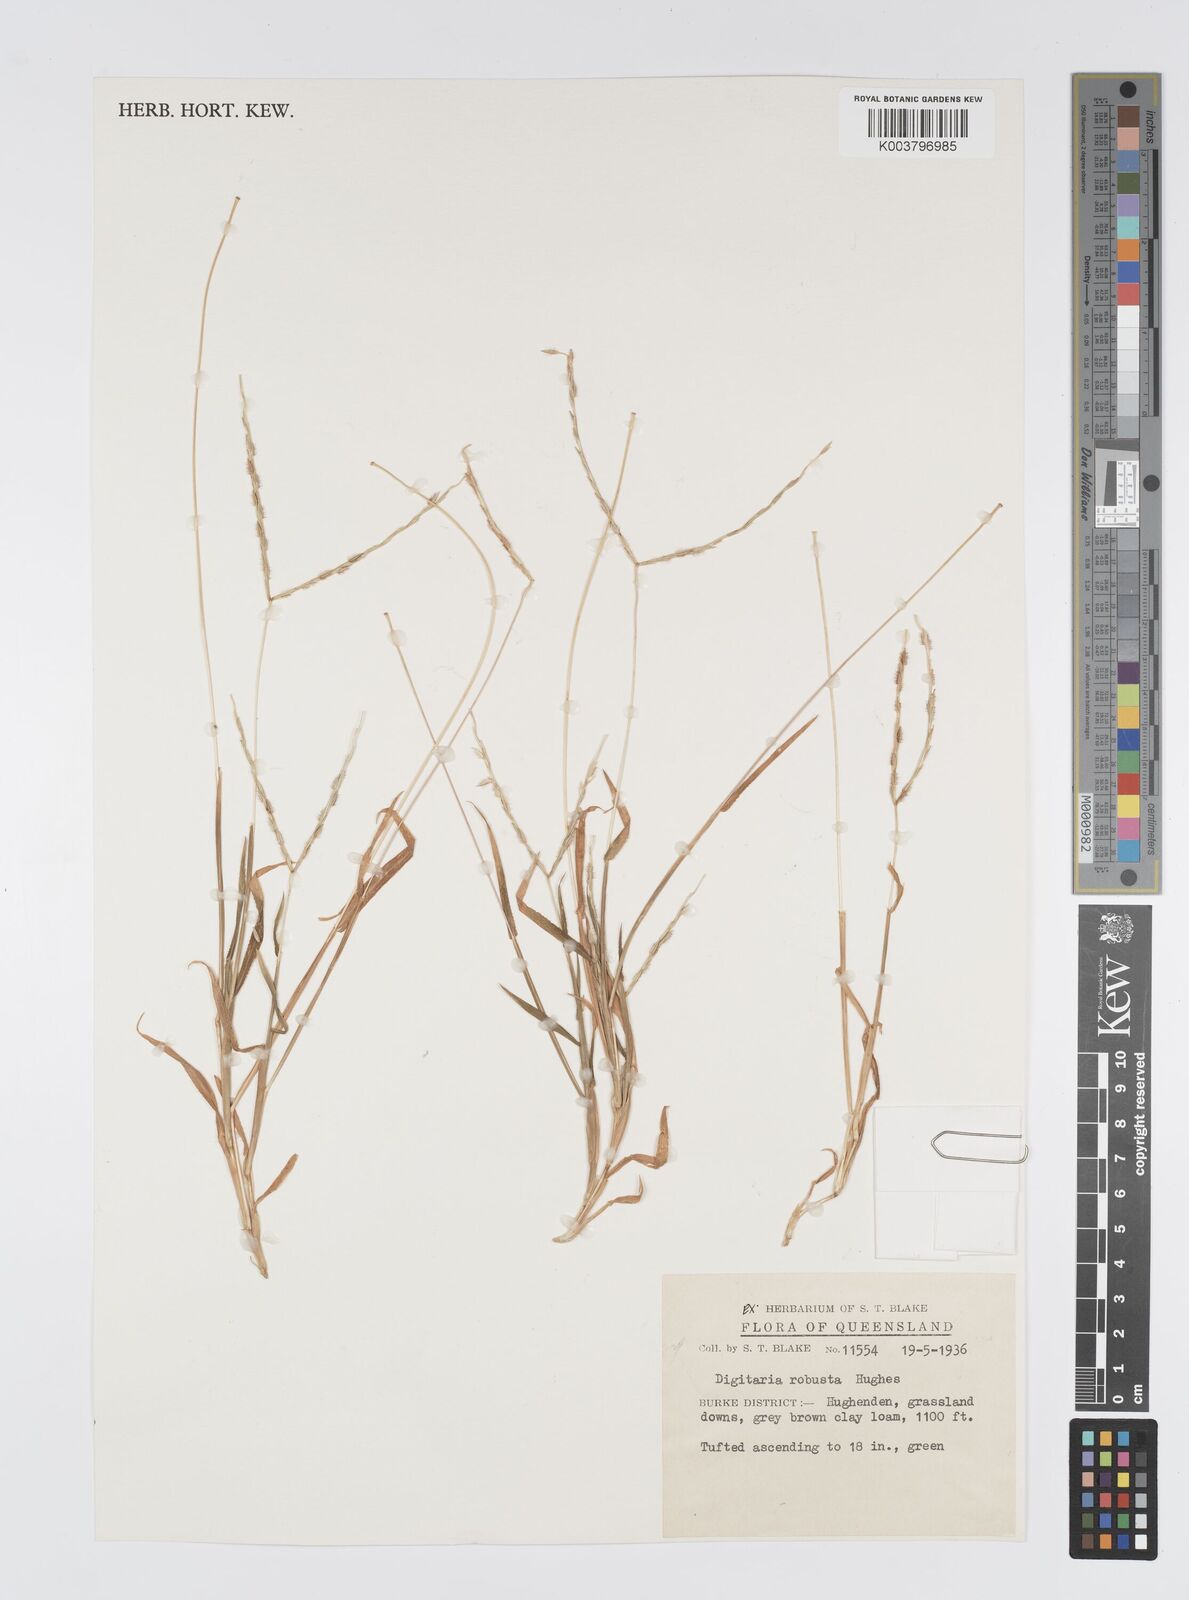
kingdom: Plantae
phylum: Tracheophyta
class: Liliopsida
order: Poales
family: Poaceae
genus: Digitaria
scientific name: Digitaria ctenantha
